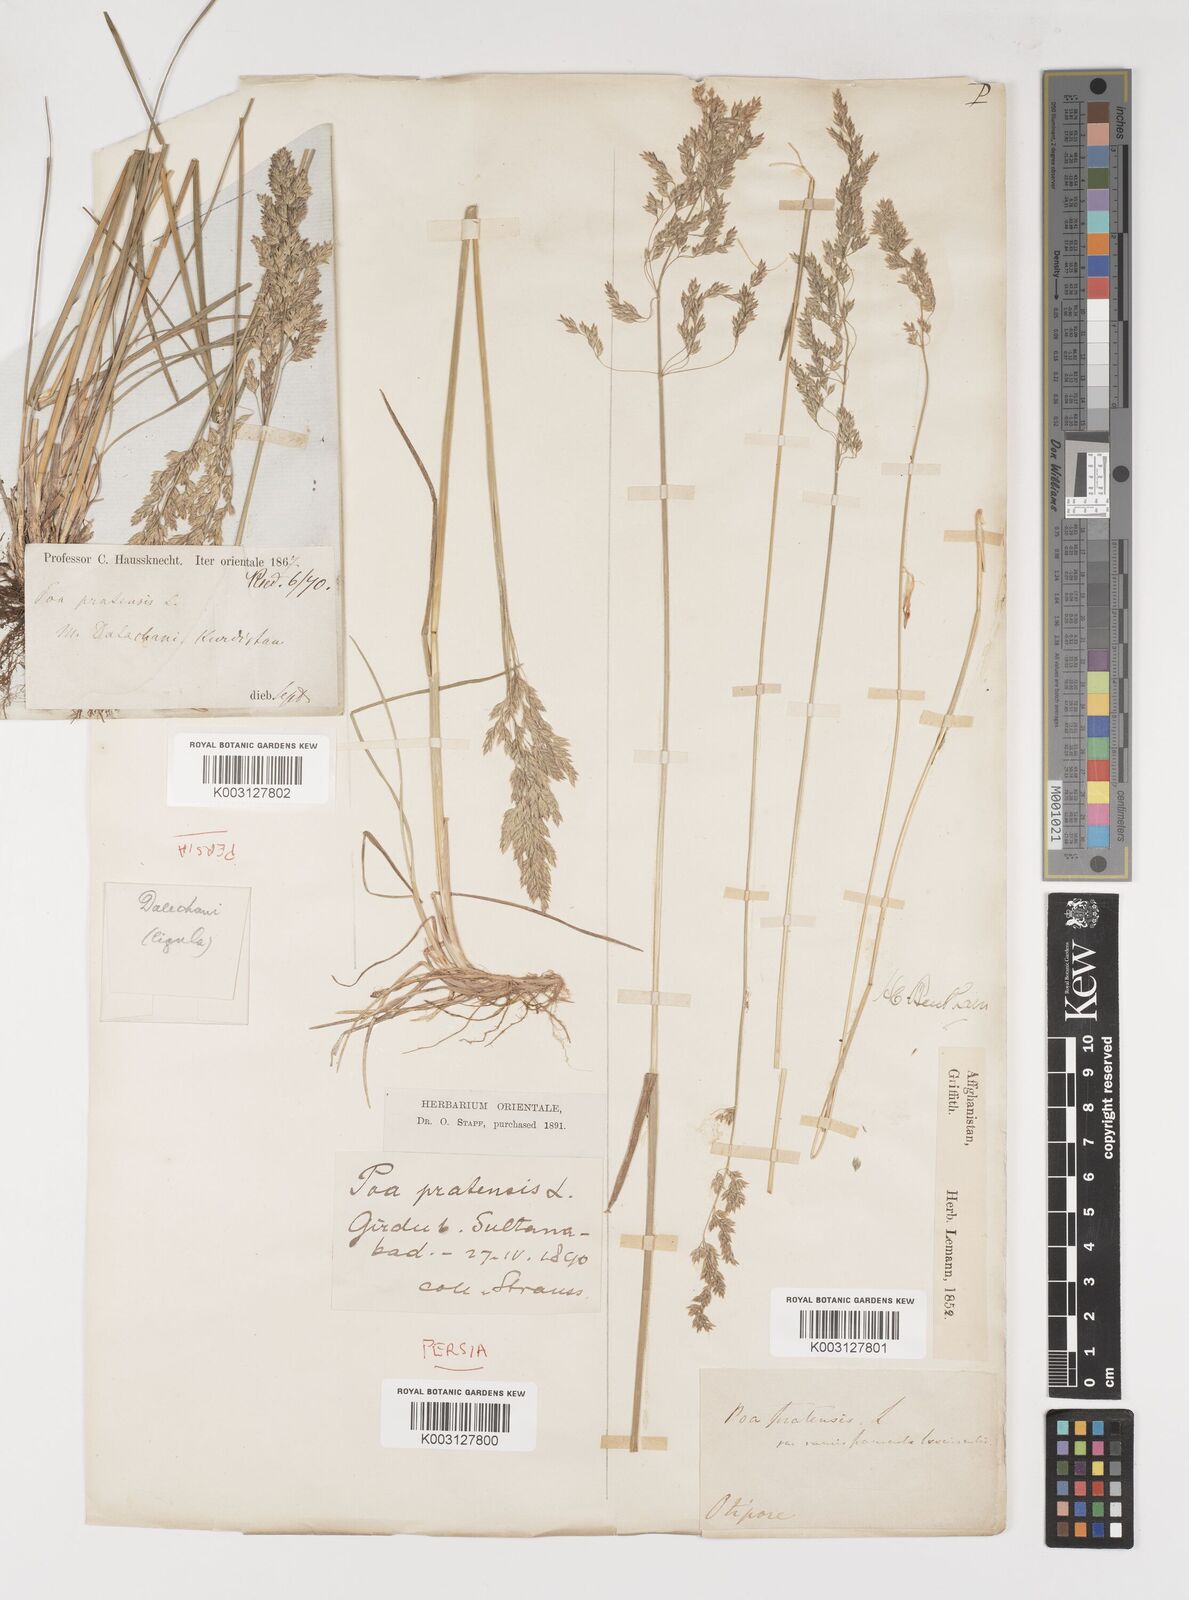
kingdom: Plantae
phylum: Tracheophyta
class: Liliopsida
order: Poales
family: Poaceae
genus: Poa
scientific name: Poa pratensis
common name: Kentucky bluegrass
